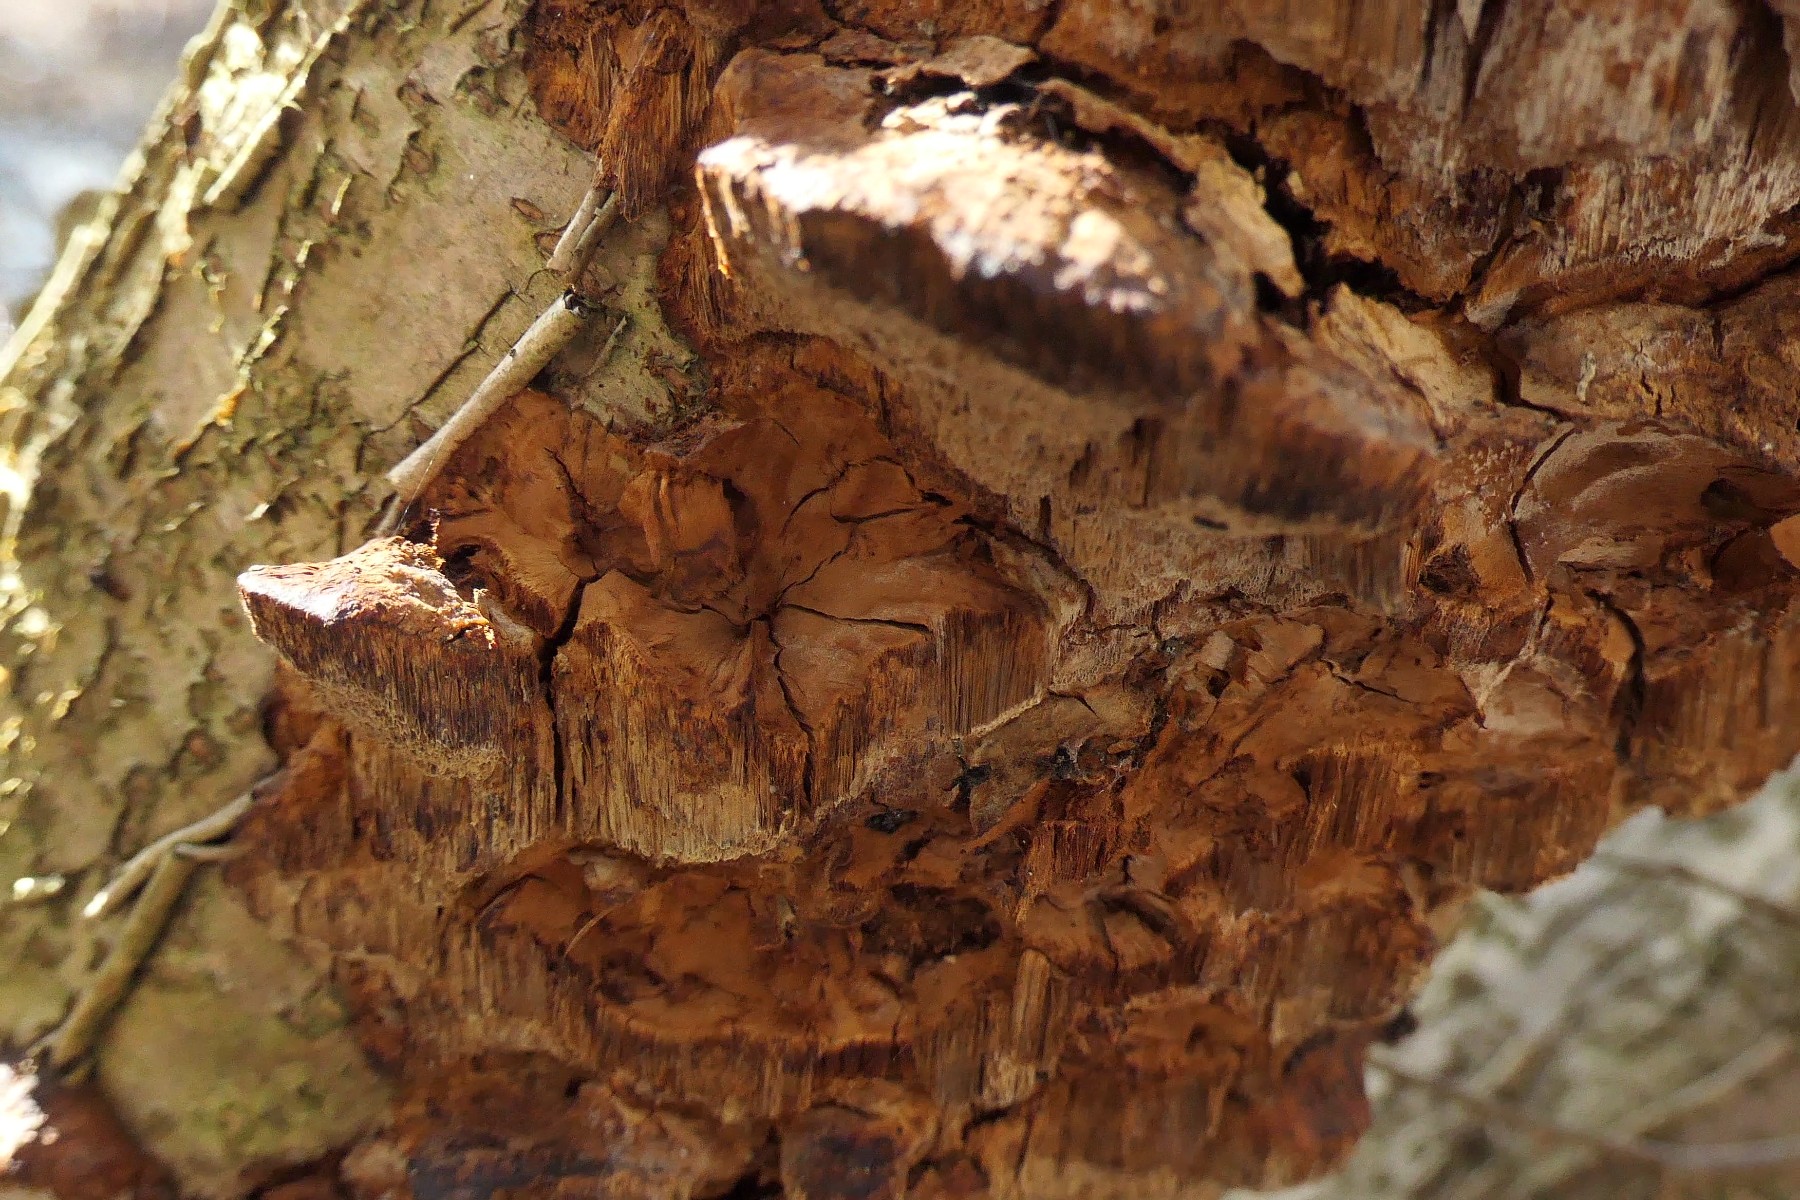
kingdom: Fungi
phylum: Basidiomycota
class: Agaricomycetes
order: Hymenochaetales
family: Hymenochaetaceae
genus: Xanthoporia
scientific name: Xanthoporia radiata
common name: elle-spejlporesvamp
